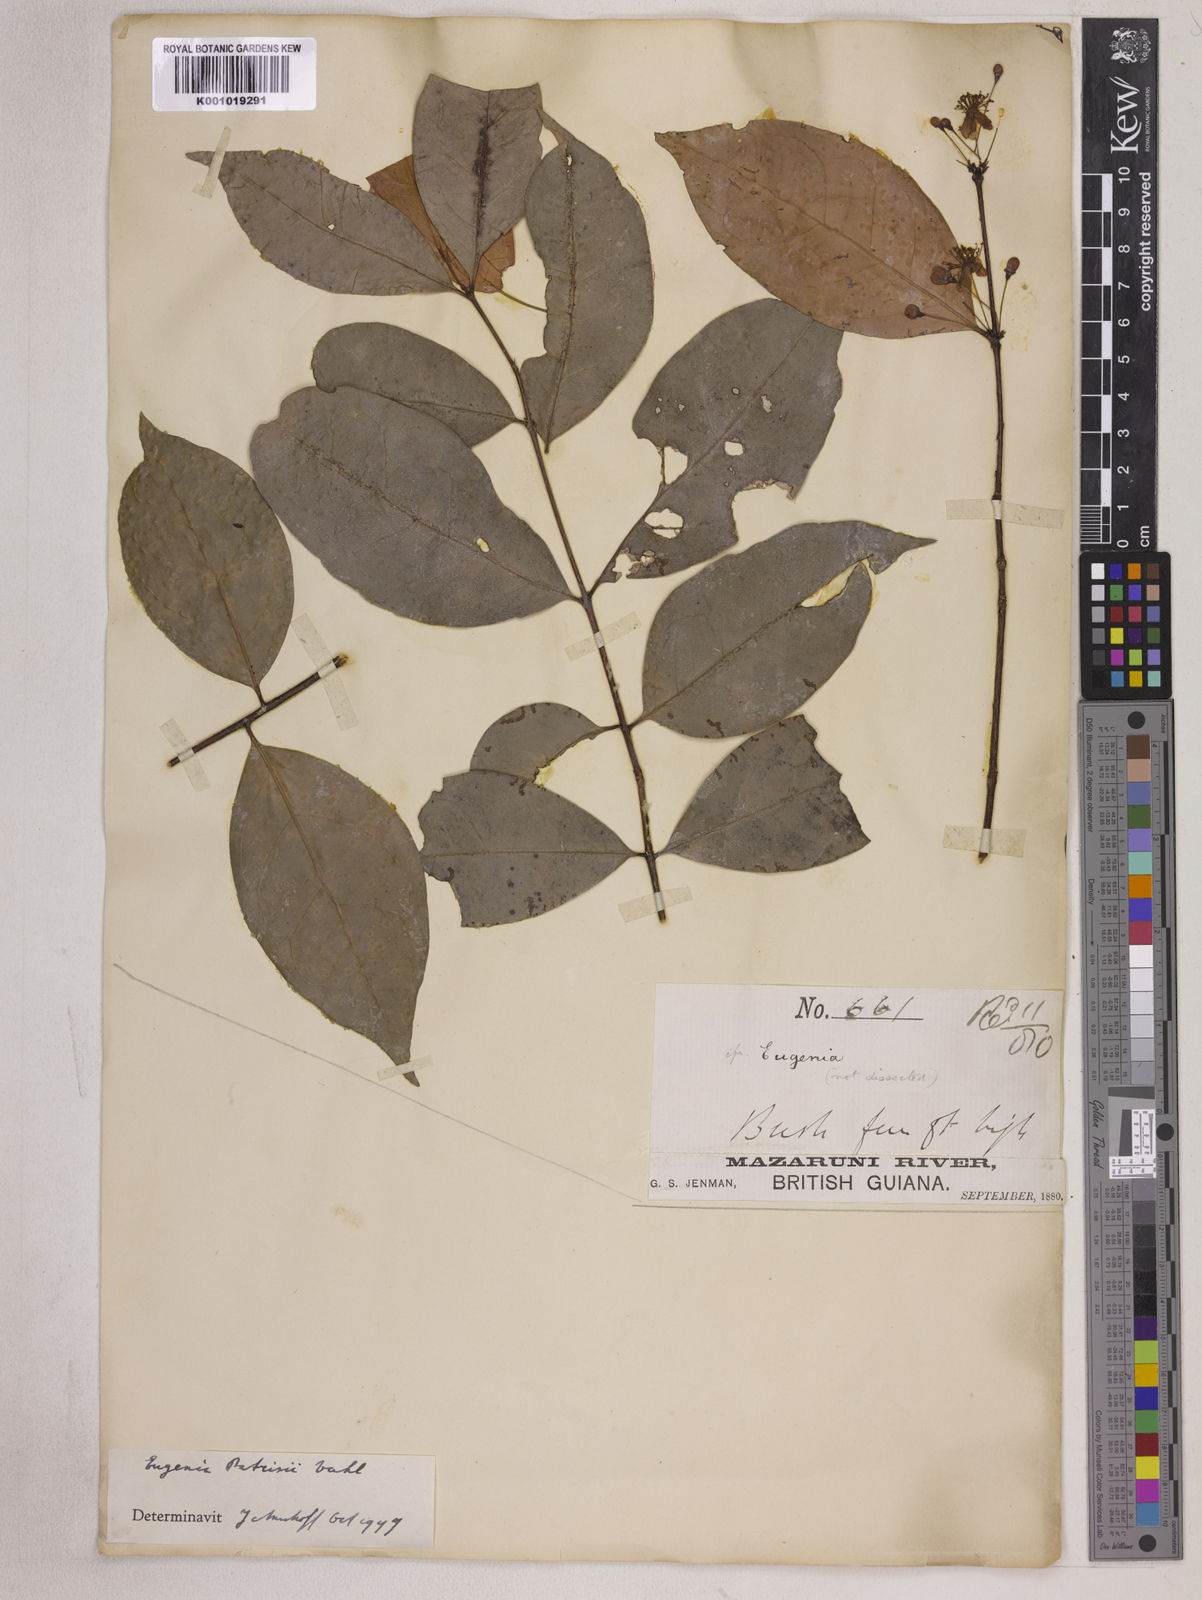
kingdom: Plantae
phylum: Tracheophyta
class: Magnoliopsida
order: Myrtales
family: Myrtaceae
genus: Eugenia
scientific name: Eugenia patrisii
